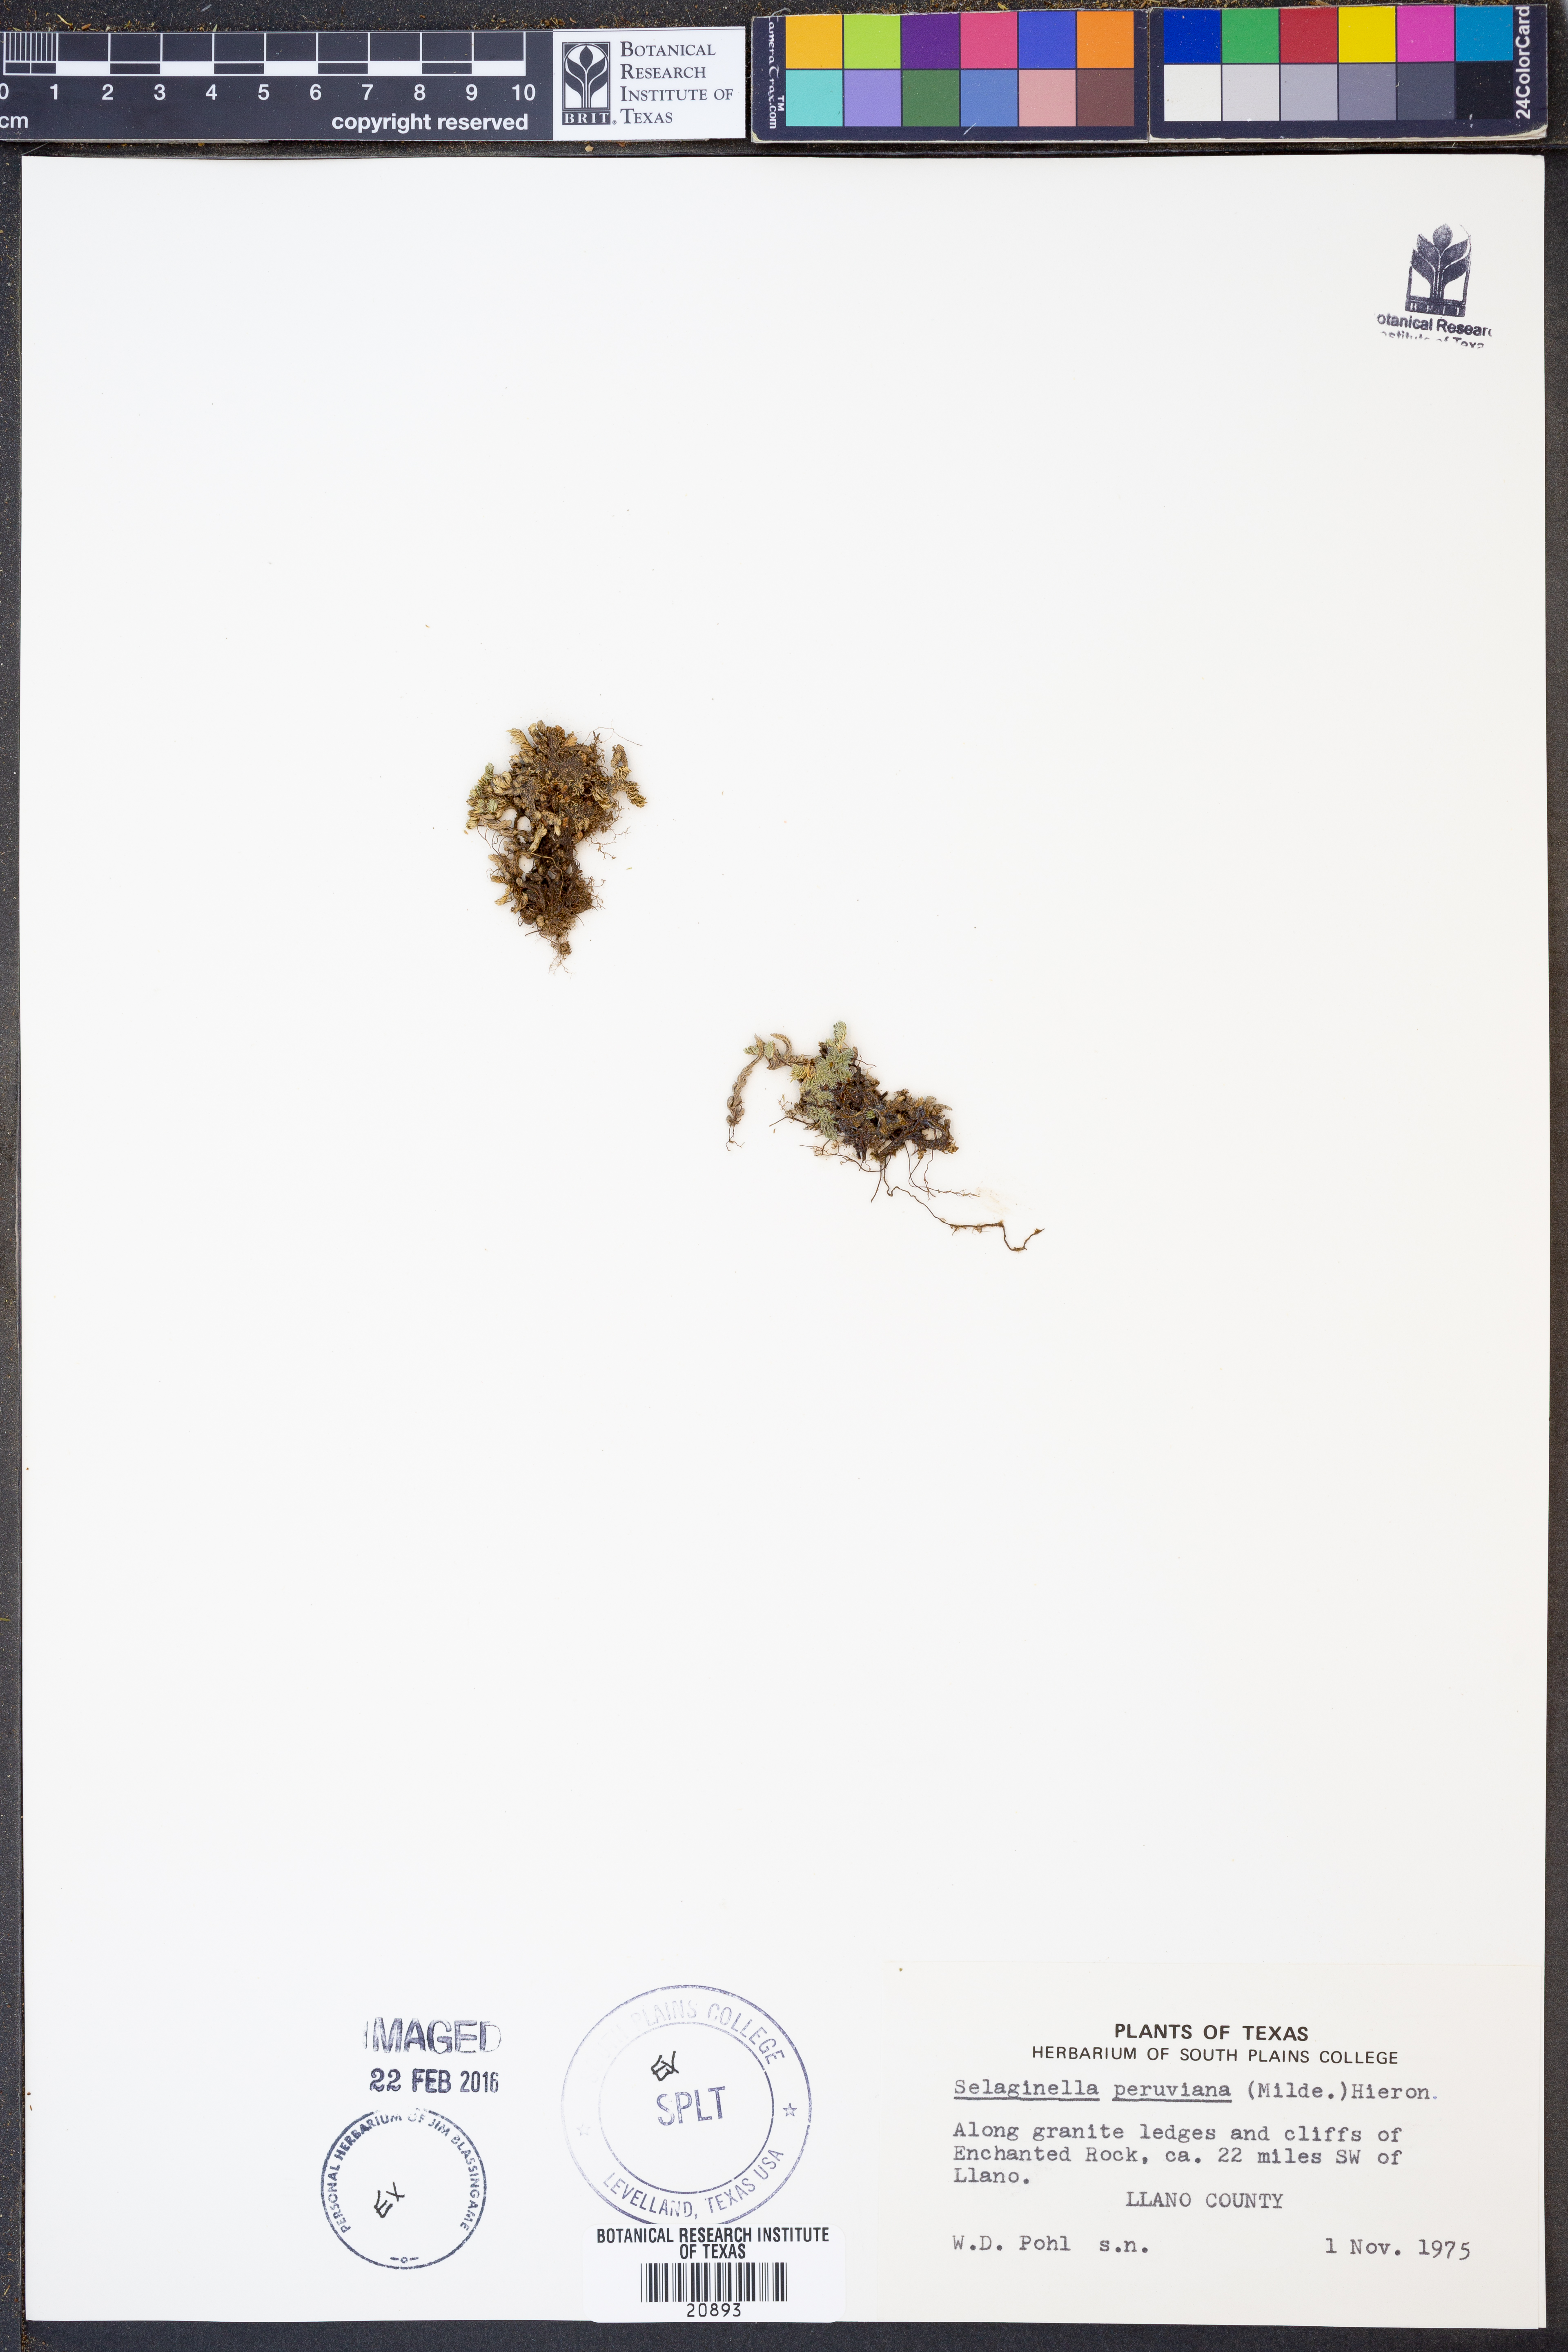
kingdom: Plantae
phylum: Tracheophyta
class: Lycopodiopsida
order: Selaginellales
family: Selaginellaceae
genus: Selaginella
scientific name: Selaginella peruviana
